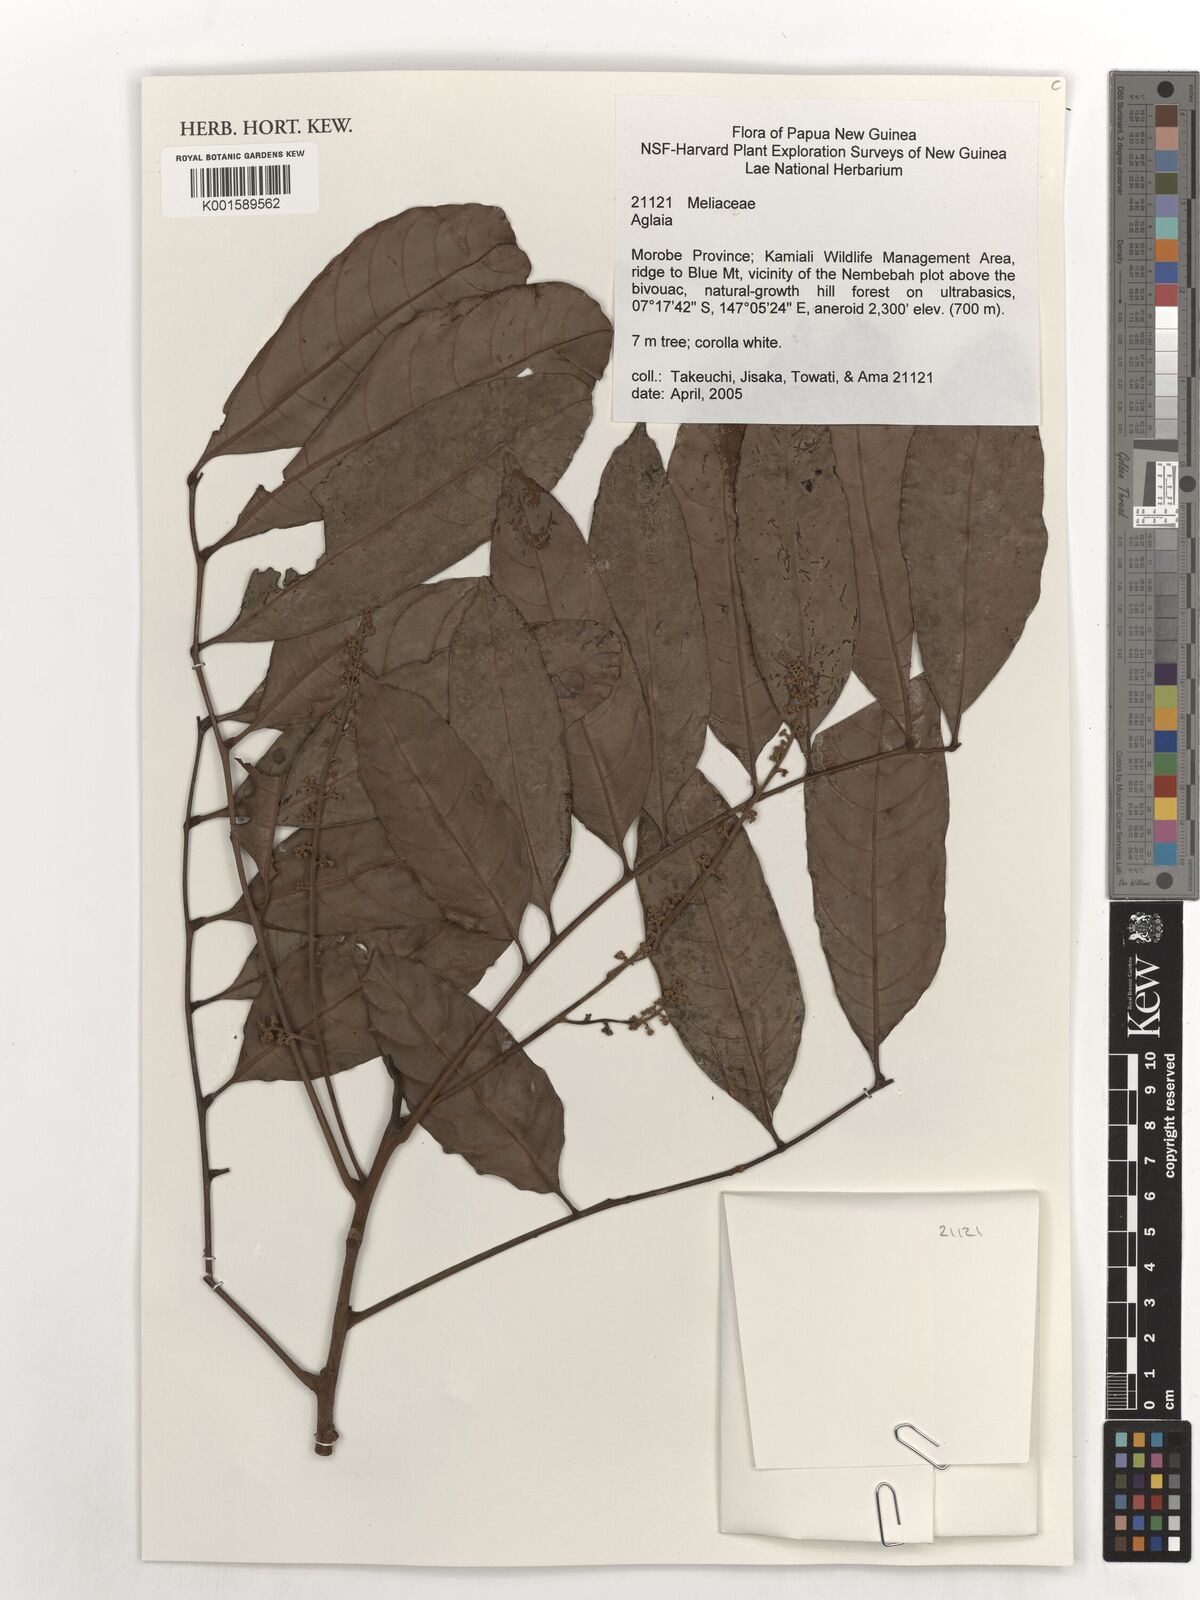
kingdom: Plantae
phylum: Tracheophyta
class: Magnoliopsida
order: Sapindales
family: Meliaceae
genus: Aglaia
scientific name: Aglaia
